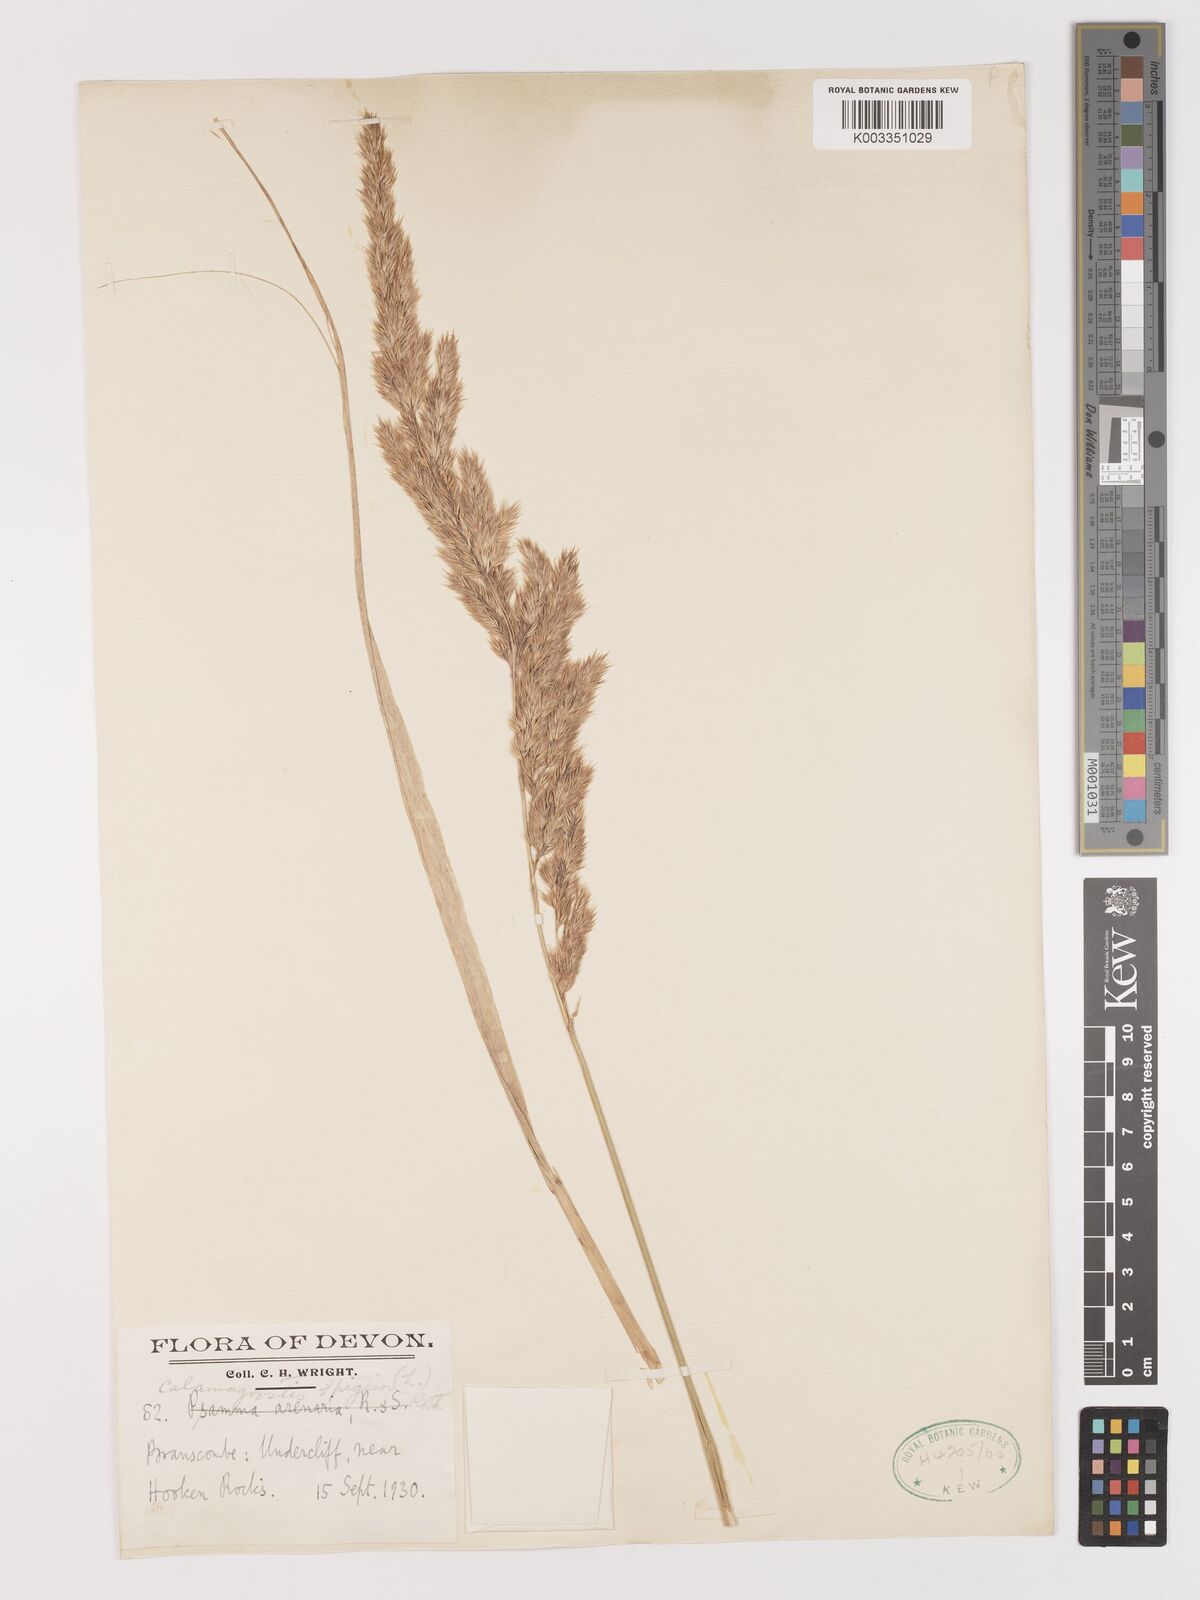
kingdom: Plantae
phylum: Tracheophyta
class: Liliopsida
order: Poales
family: Poaceae
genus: Calamagrostis
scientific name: Calamagrostis epigejos
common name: Wood small-reed
